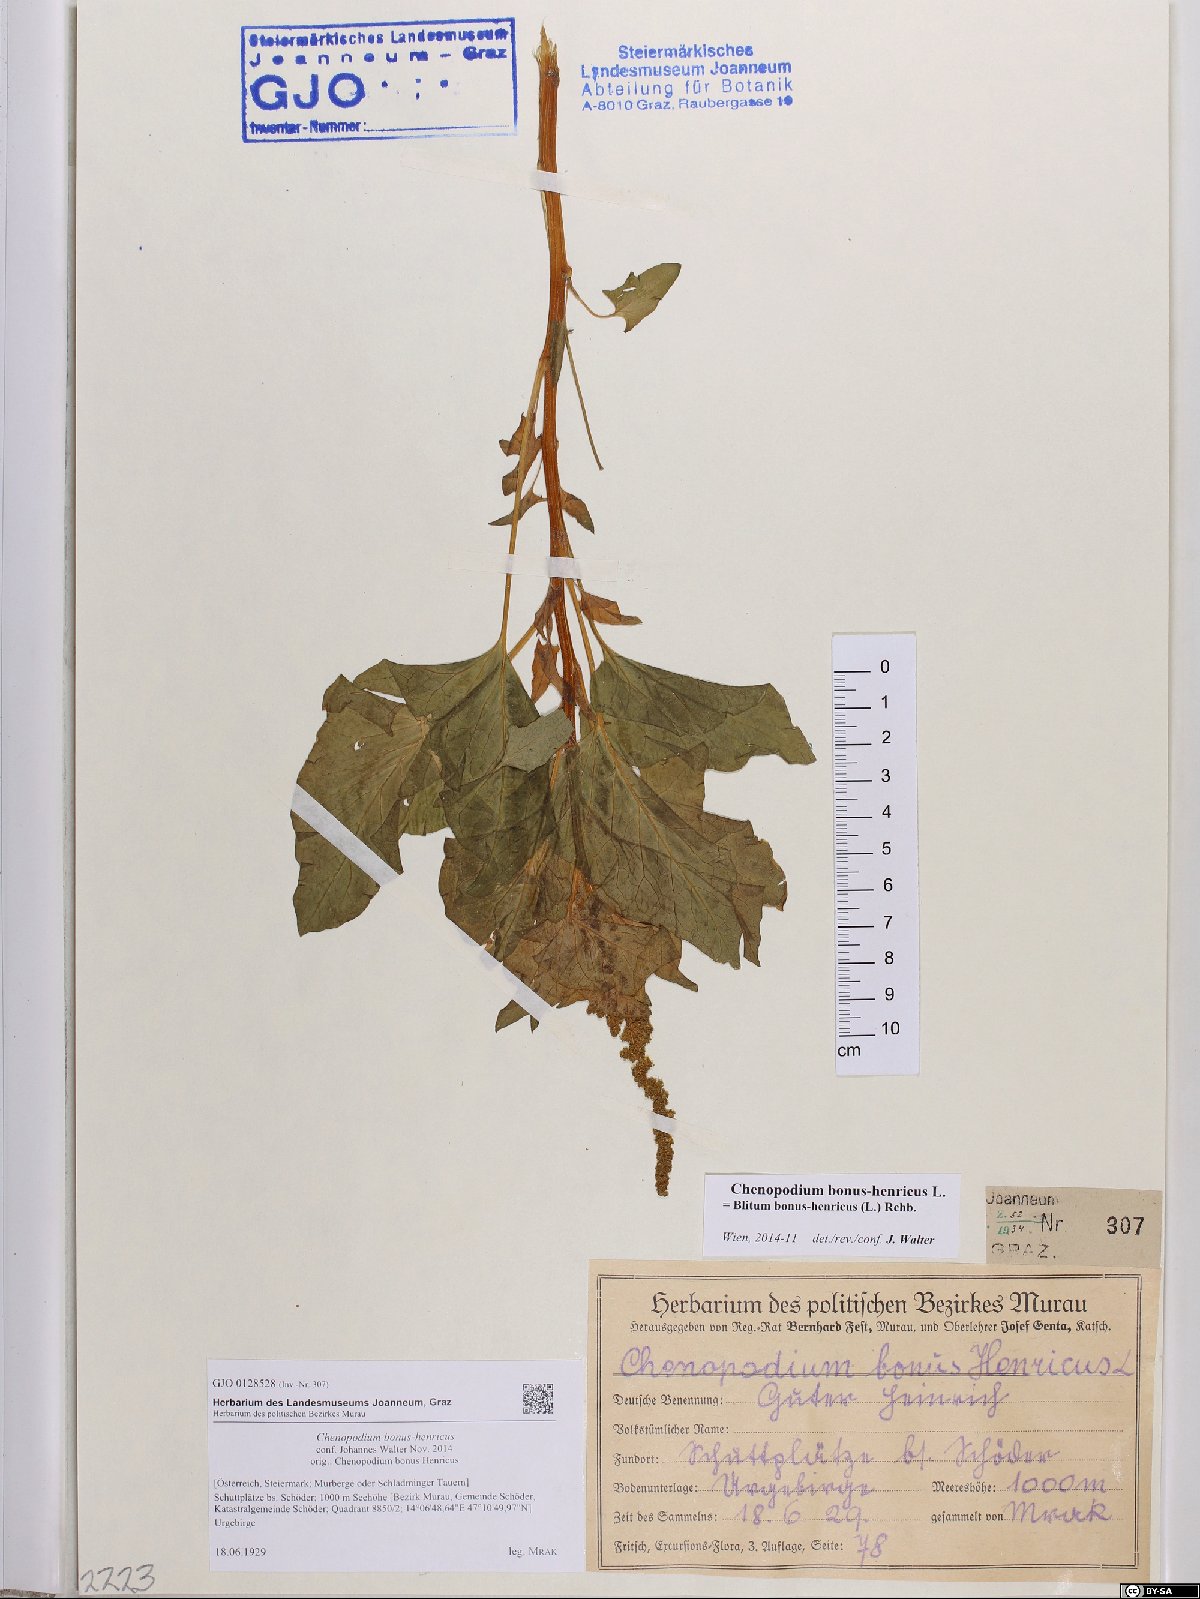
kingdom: Plantae
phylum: Tracheophyta
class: Magnoliopsida
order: Caryophyllales
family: Amaranthaceae
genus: Blitum
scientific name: Blitum bonus-henricus
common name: Good king henry
